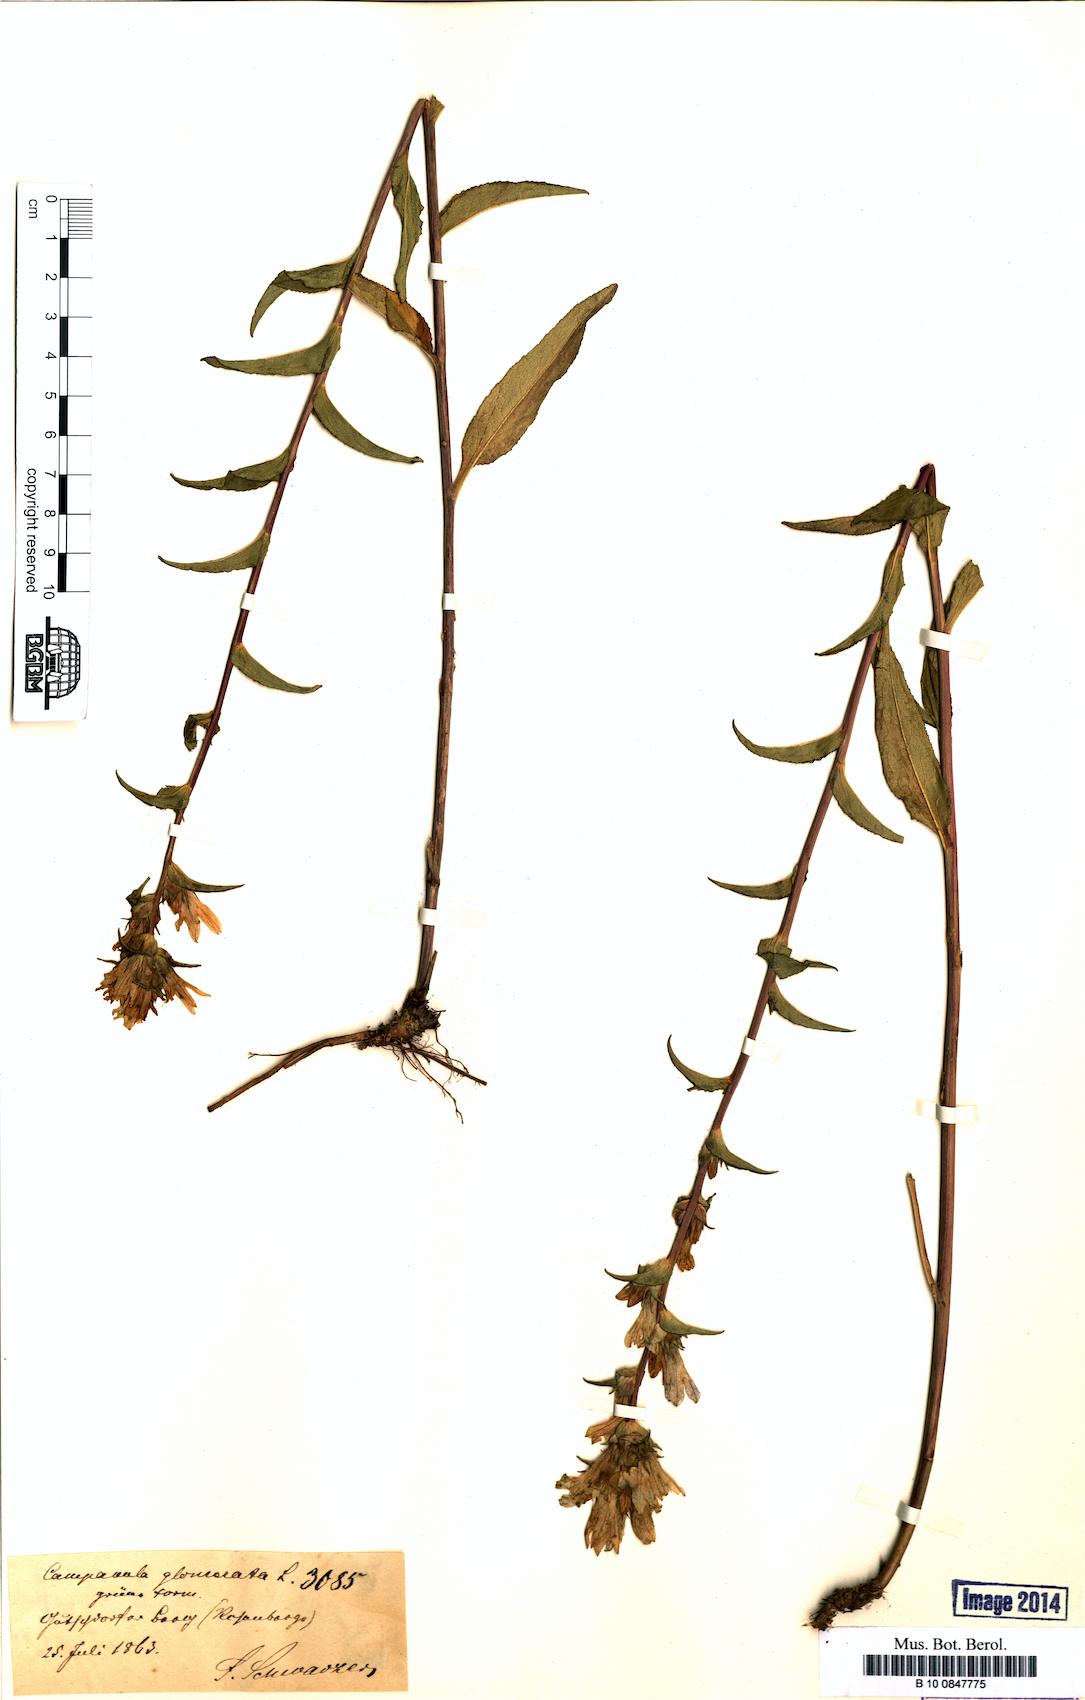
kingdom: Plantae
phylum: Tracheophyta
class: Magnoliopsida
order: Asterales
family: Campanulaceae
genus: Campanula
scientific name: Campanula glomerata
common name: Clustered bellflower
